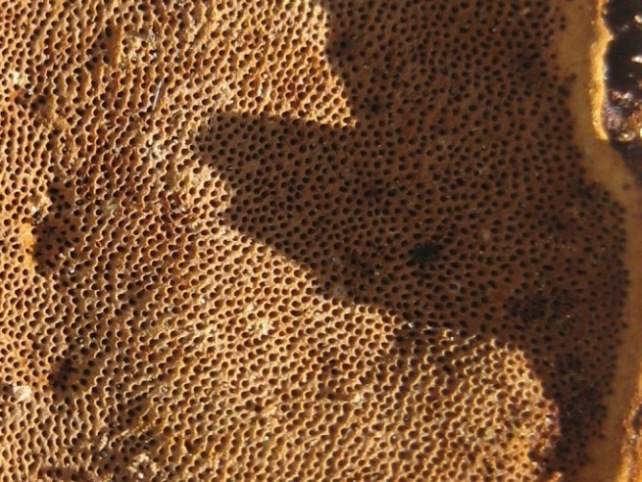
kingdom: Fungi
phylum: Basidiomycota
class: Agaricomycetes
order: Hymenochaetales
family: Hymenochaetaceae
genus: Phellinopsis
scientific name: Phellinopsis conchata
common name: pile-ildporesvamp
